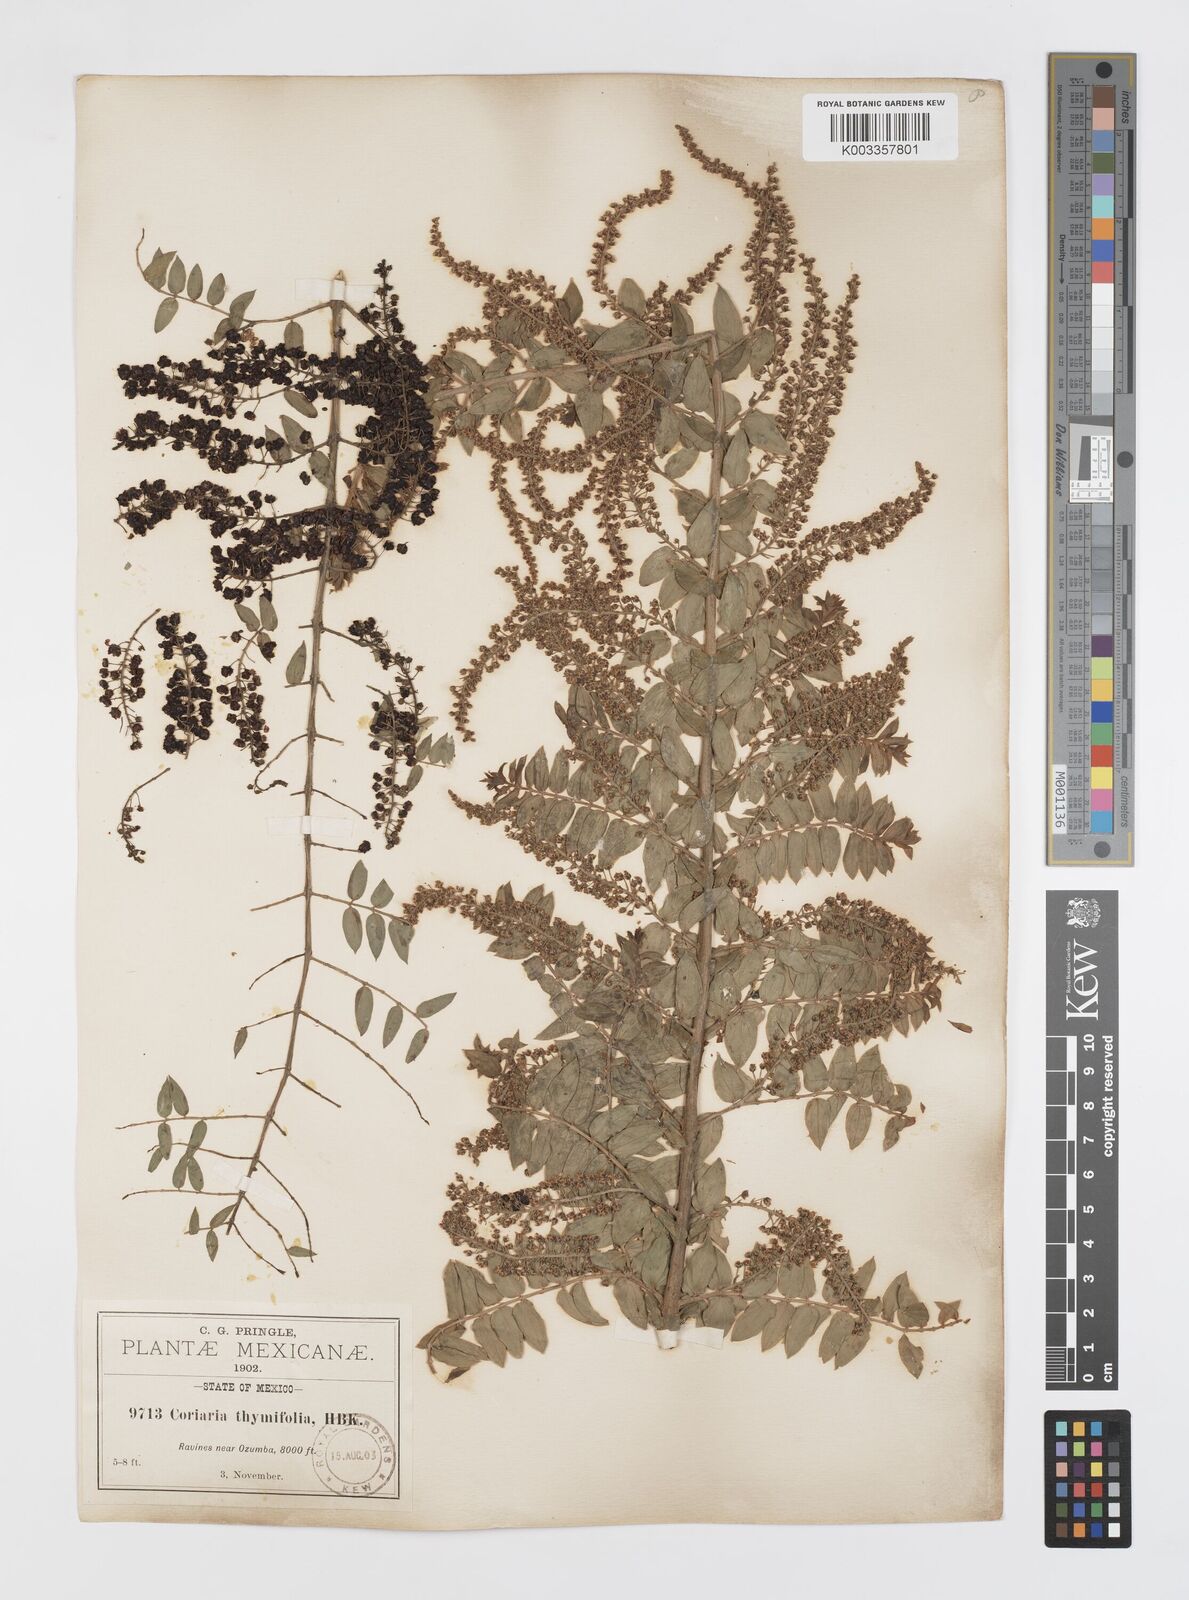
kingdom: Plantae
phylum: Tracheophyta
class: Magnoliopsida
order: Cucurbitales
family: Coriariaceae
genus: Coriaria
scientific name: Coriaria microphylla
